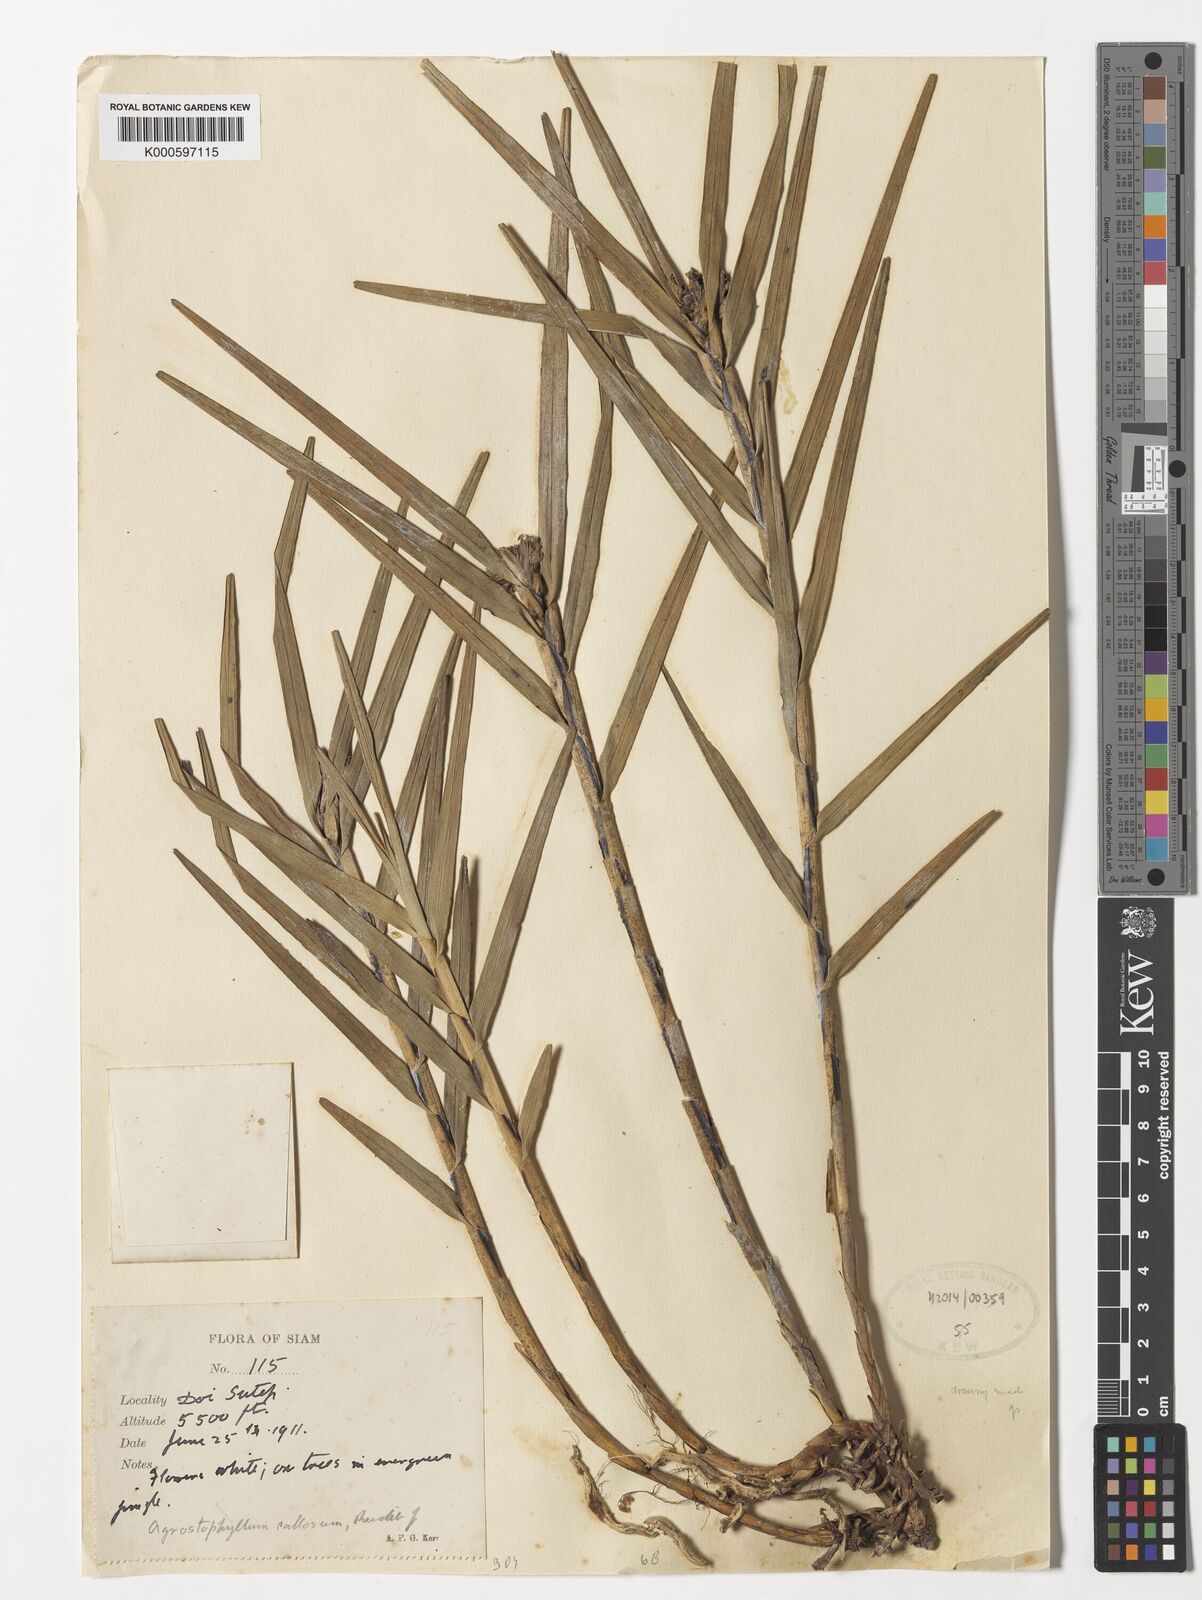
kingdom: Plantae
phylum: Tracheophyta
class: Liliopsida
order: Asparagales
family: Orchidaceae
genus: Agrostophyllum
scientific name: Agrostophyllum majus
